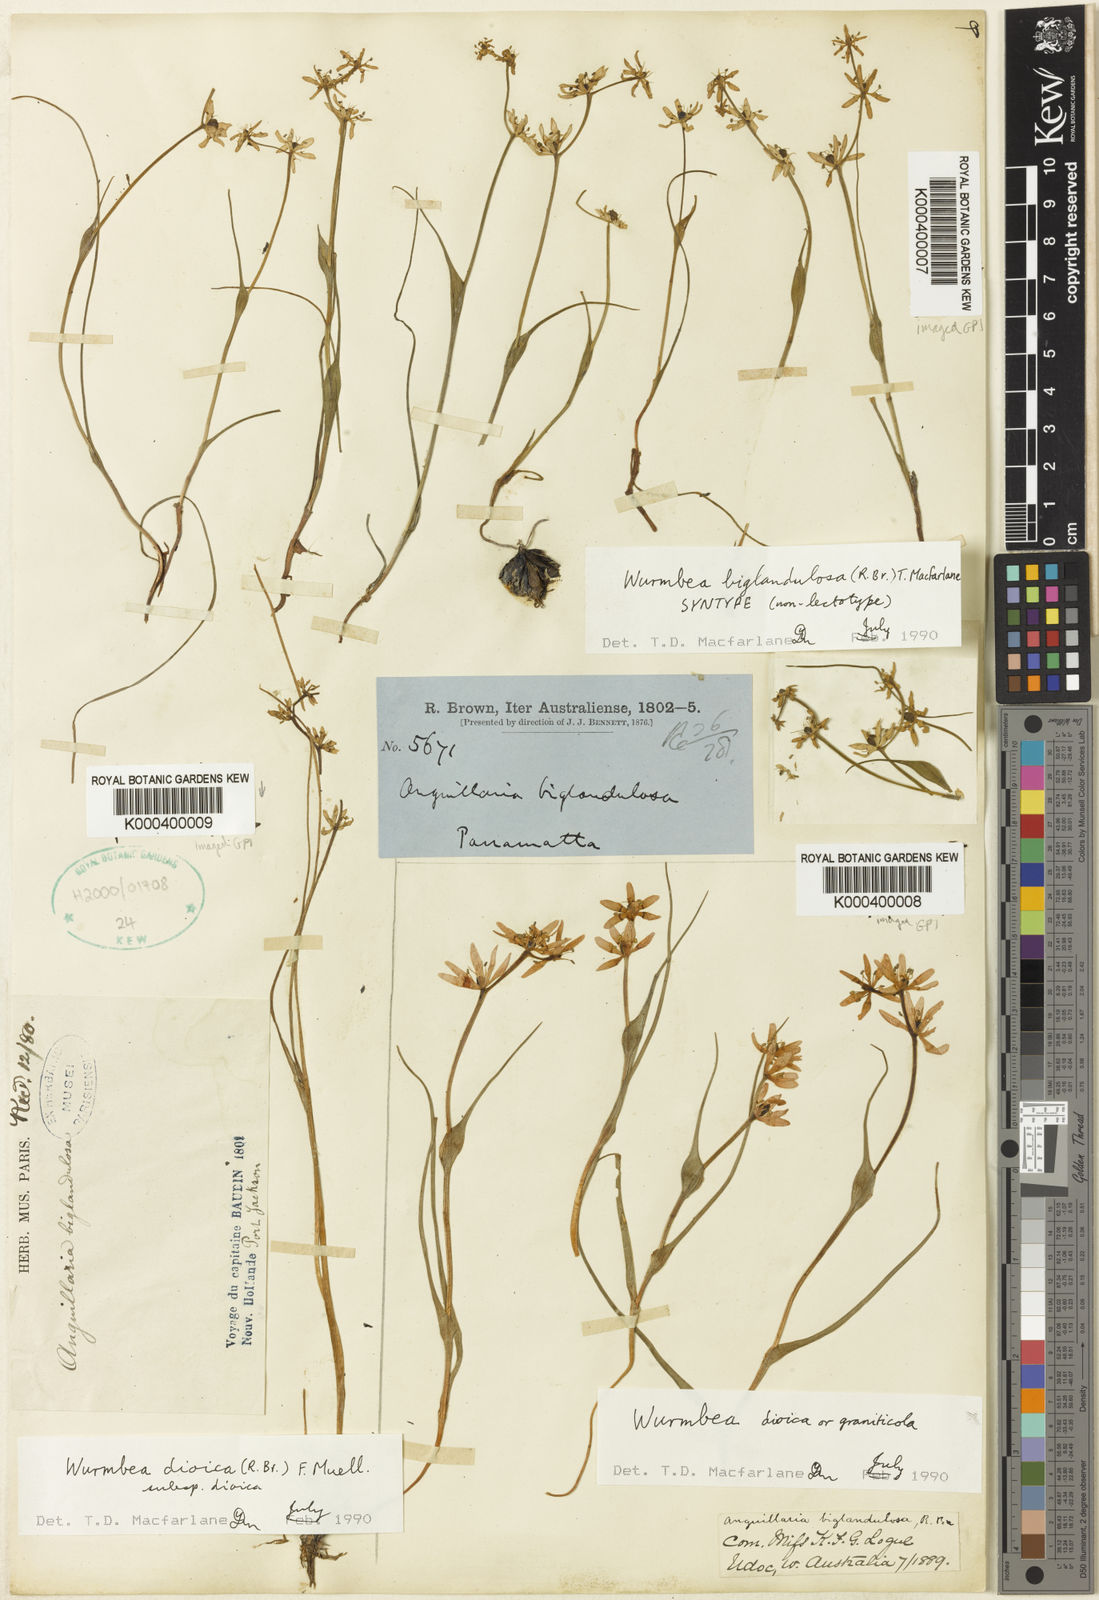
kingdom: Plantae
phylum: Tracheophyta
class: Liliopsida
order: Liliales
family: Colchicaceae
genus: Wurmbea
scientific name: Wurmbea biglandulosa
